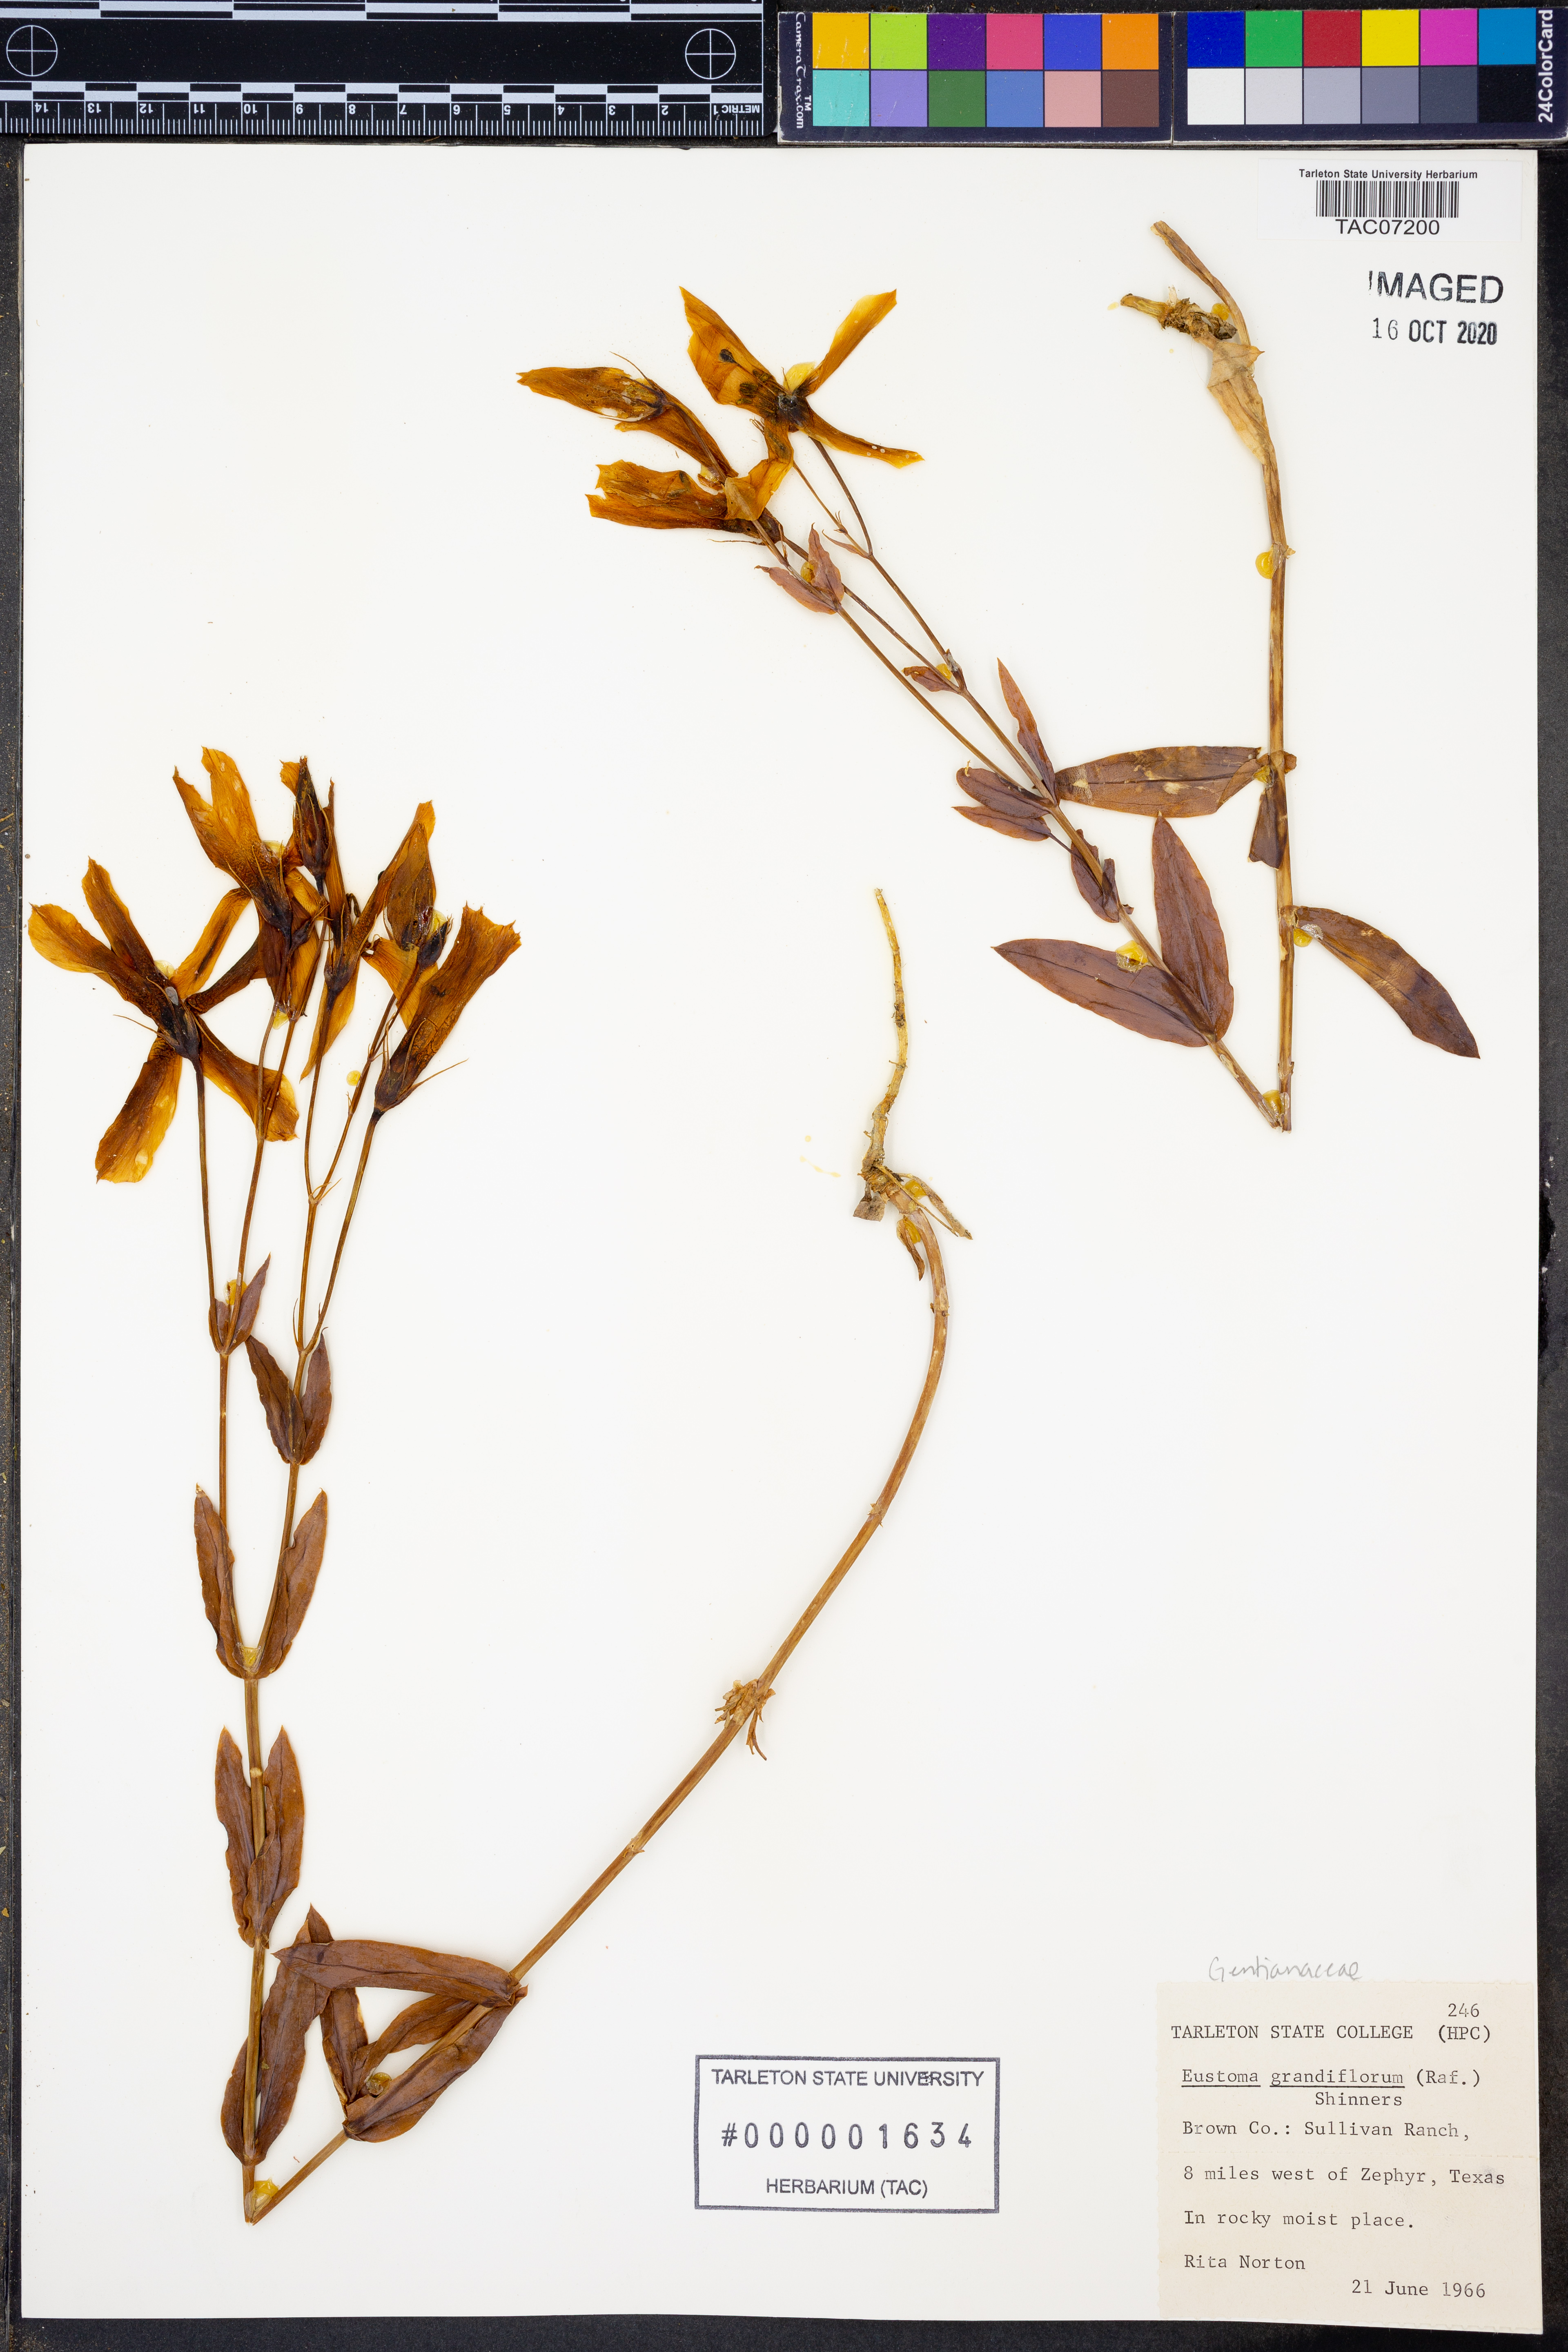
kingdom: Plantae
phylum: Tracheophyta
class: Magnoliopsida
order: Gentianales
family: Gentianaceae
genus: Eustoma
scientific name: Eustoma russellianum
